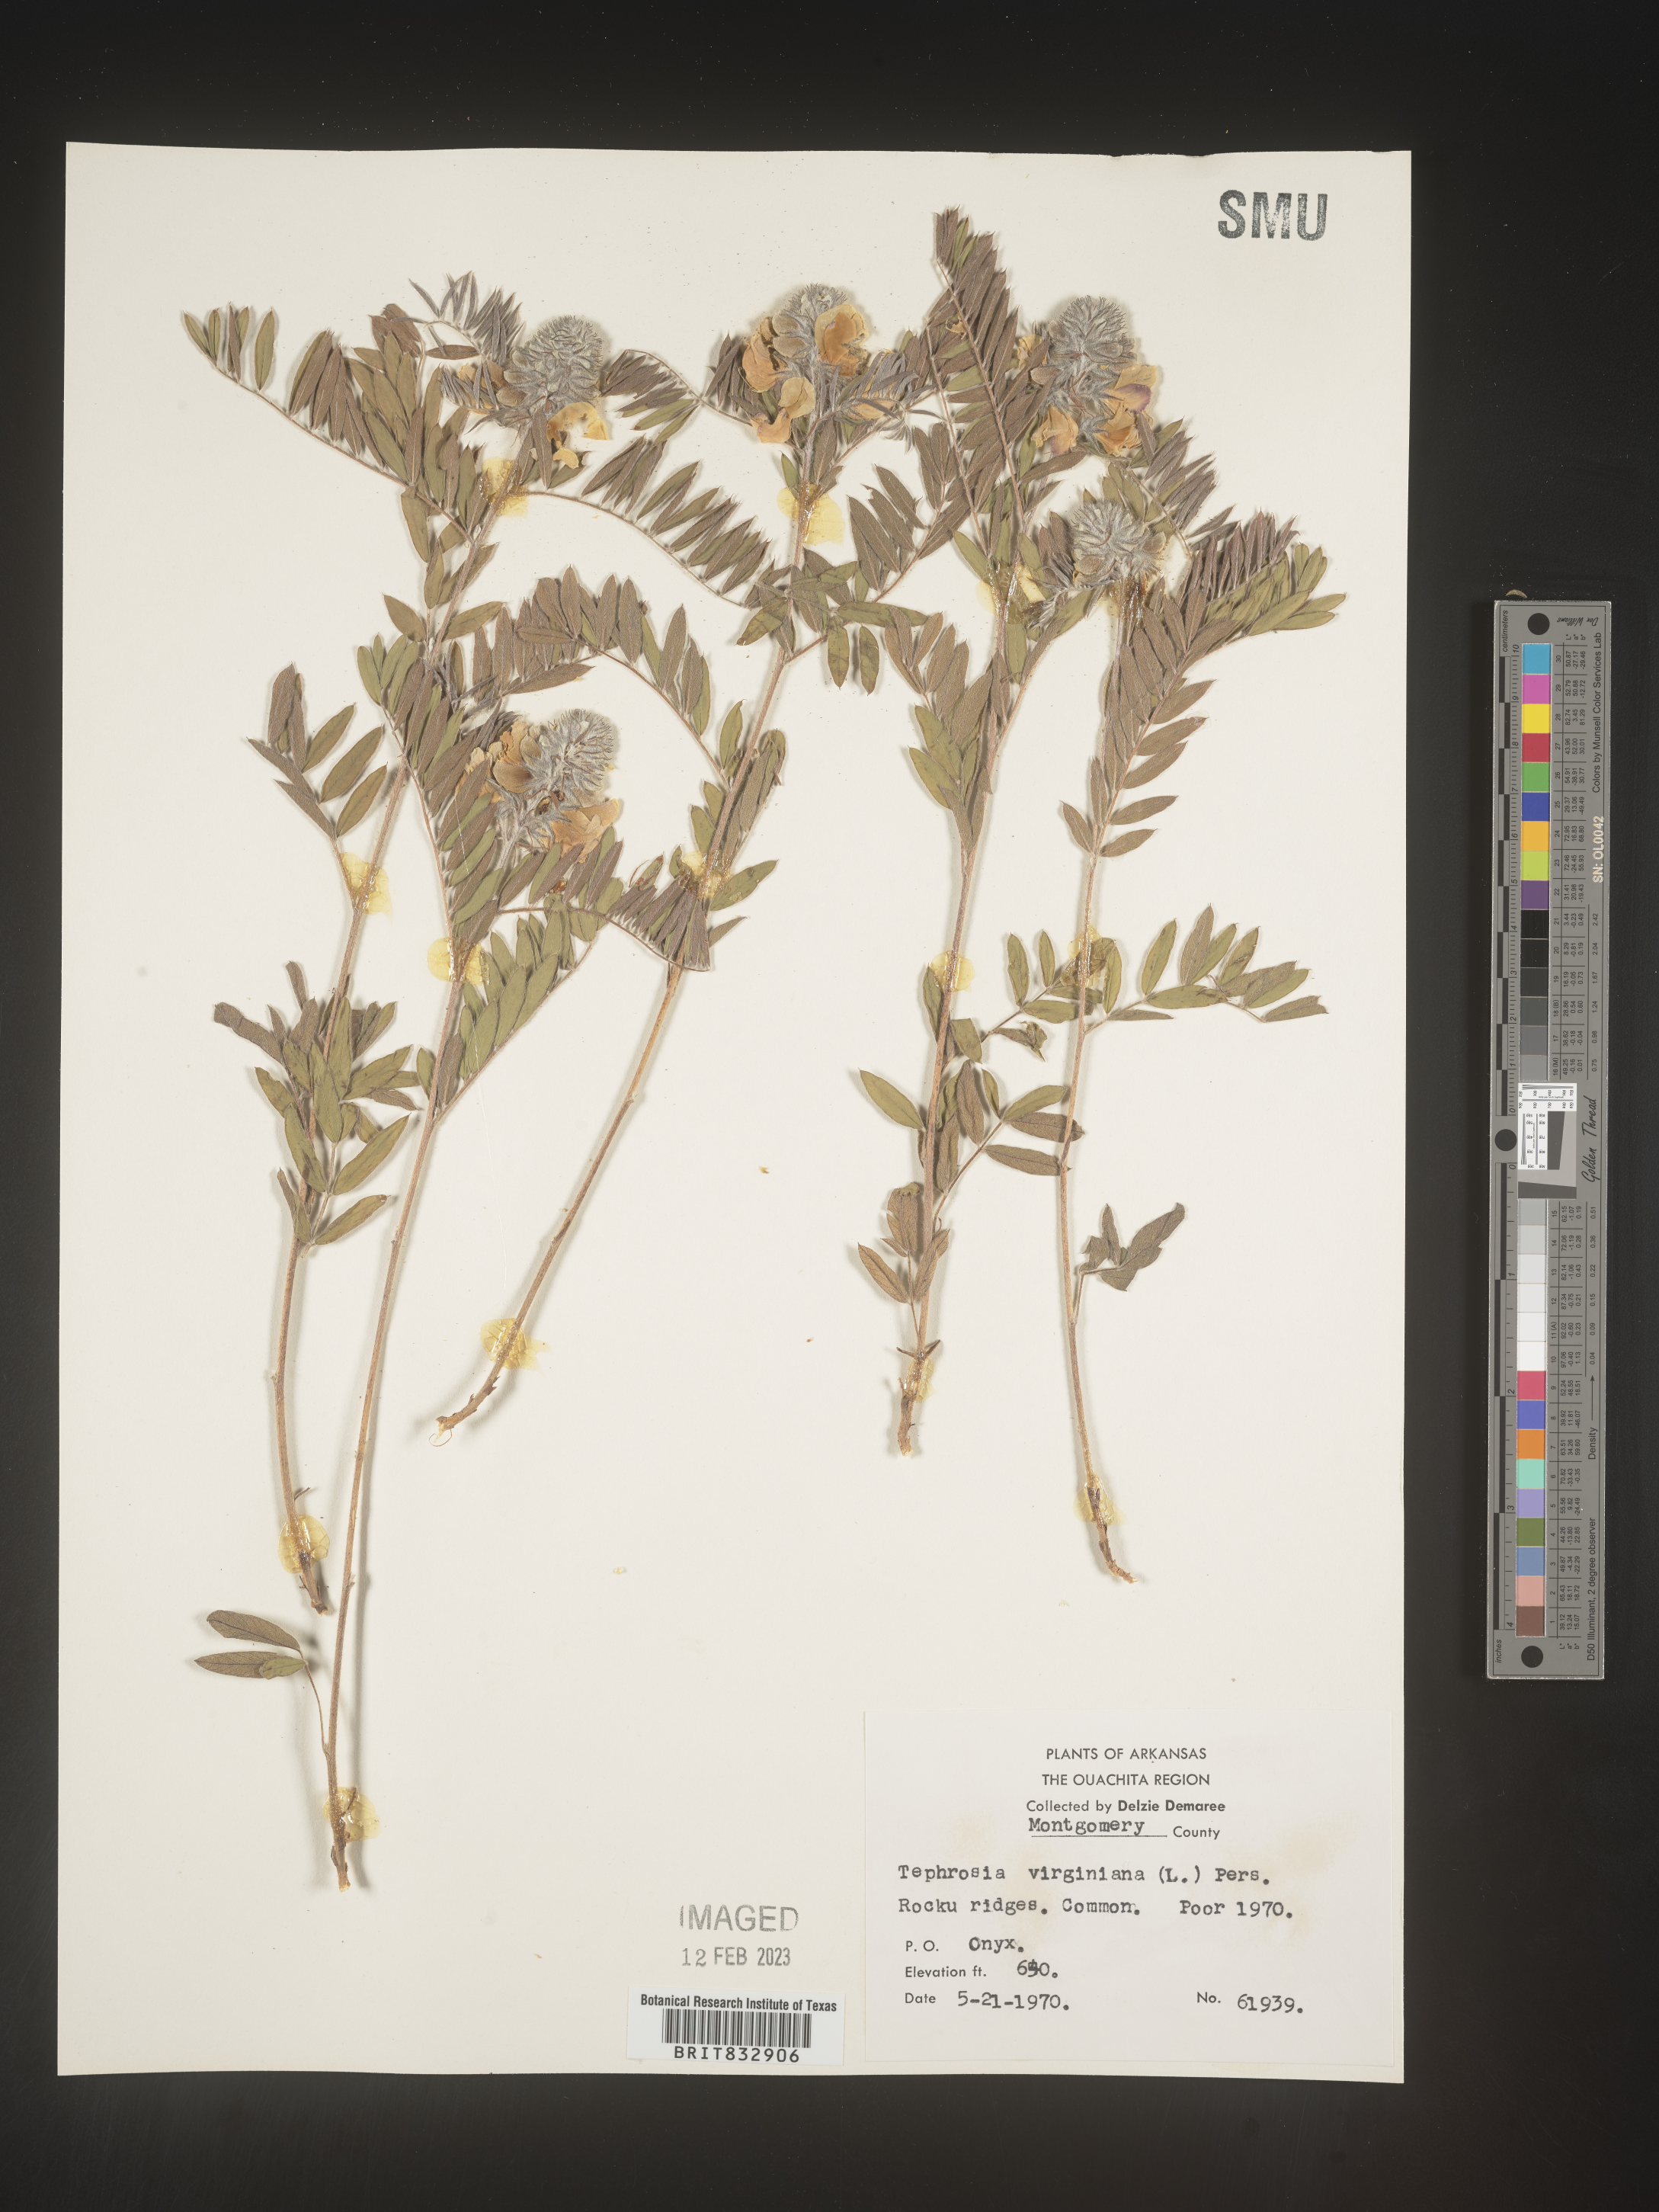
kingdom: Plantae
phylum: Tracheophyta
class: Magnoliopsida
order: Fabales
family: Fabaceae
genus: Tephrosia
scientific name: Tephrosia virginiana
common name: Rabbit-pea
